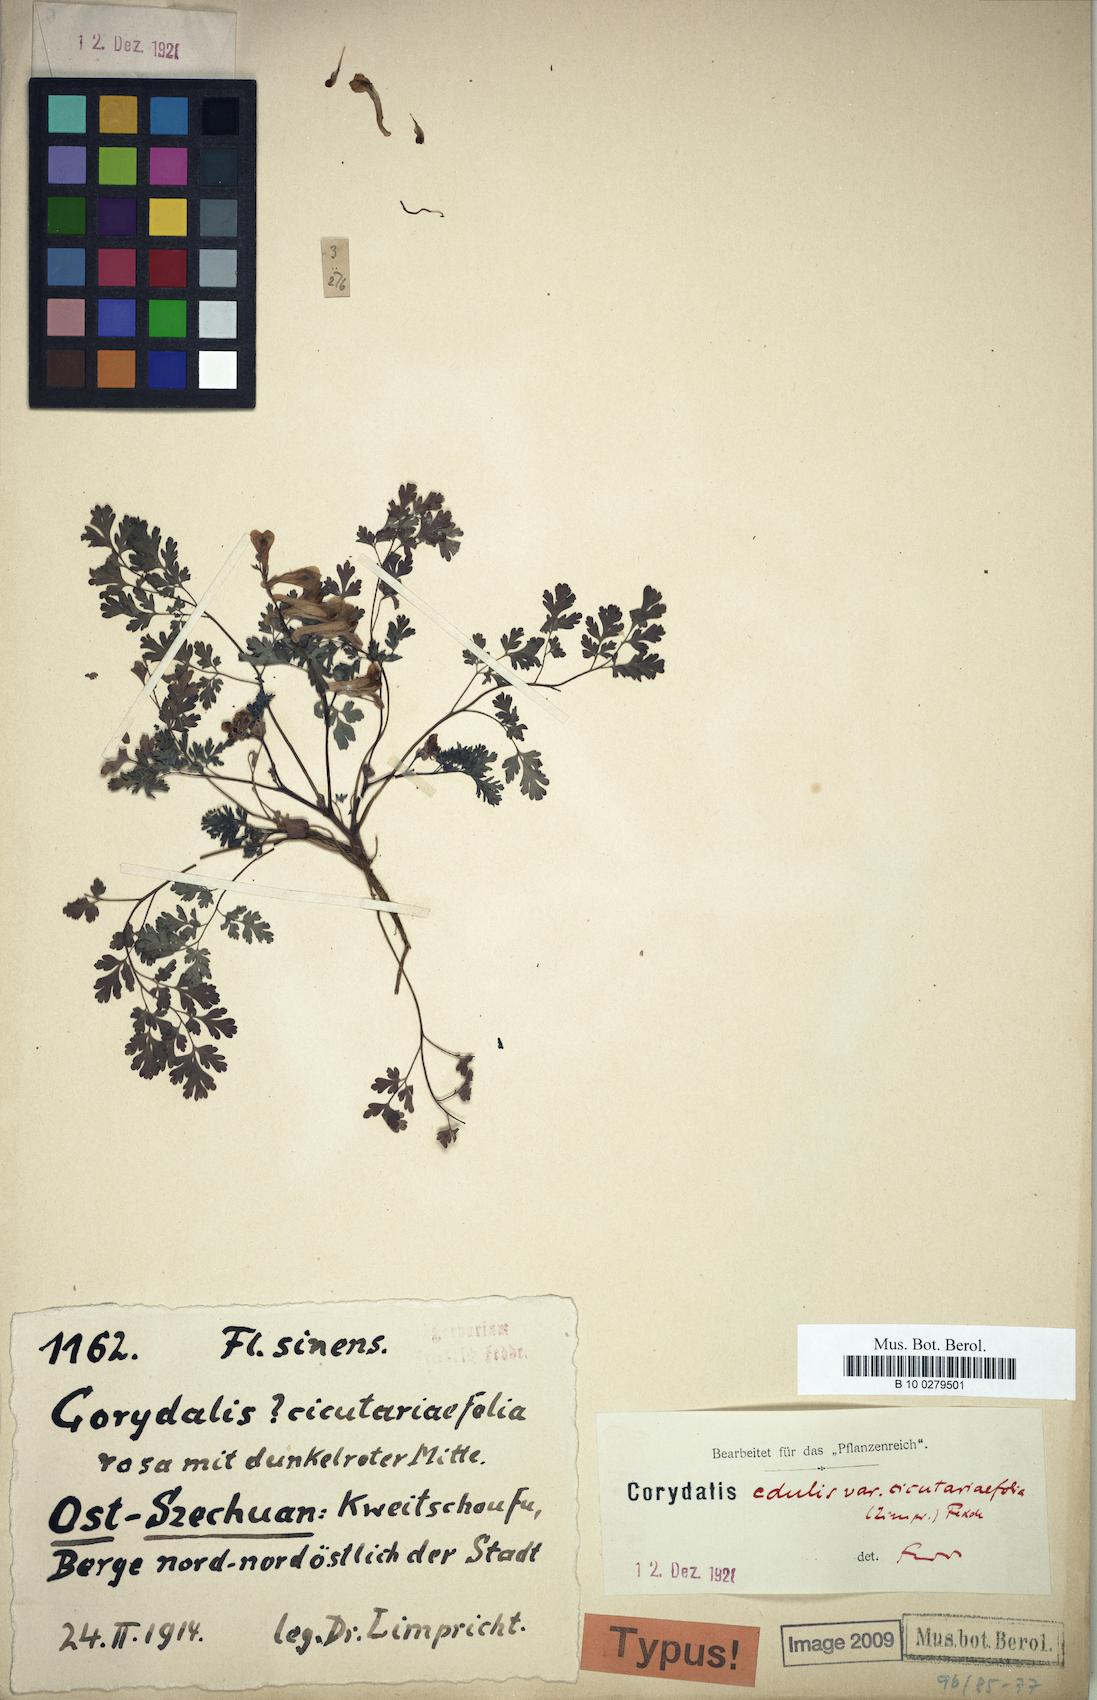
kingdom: Plantae
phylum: Tracheophyta
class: Magnoliopsida
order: Ranunculales
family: Papaveraceae
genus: Corydalis
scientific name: Corydalis racemosa
